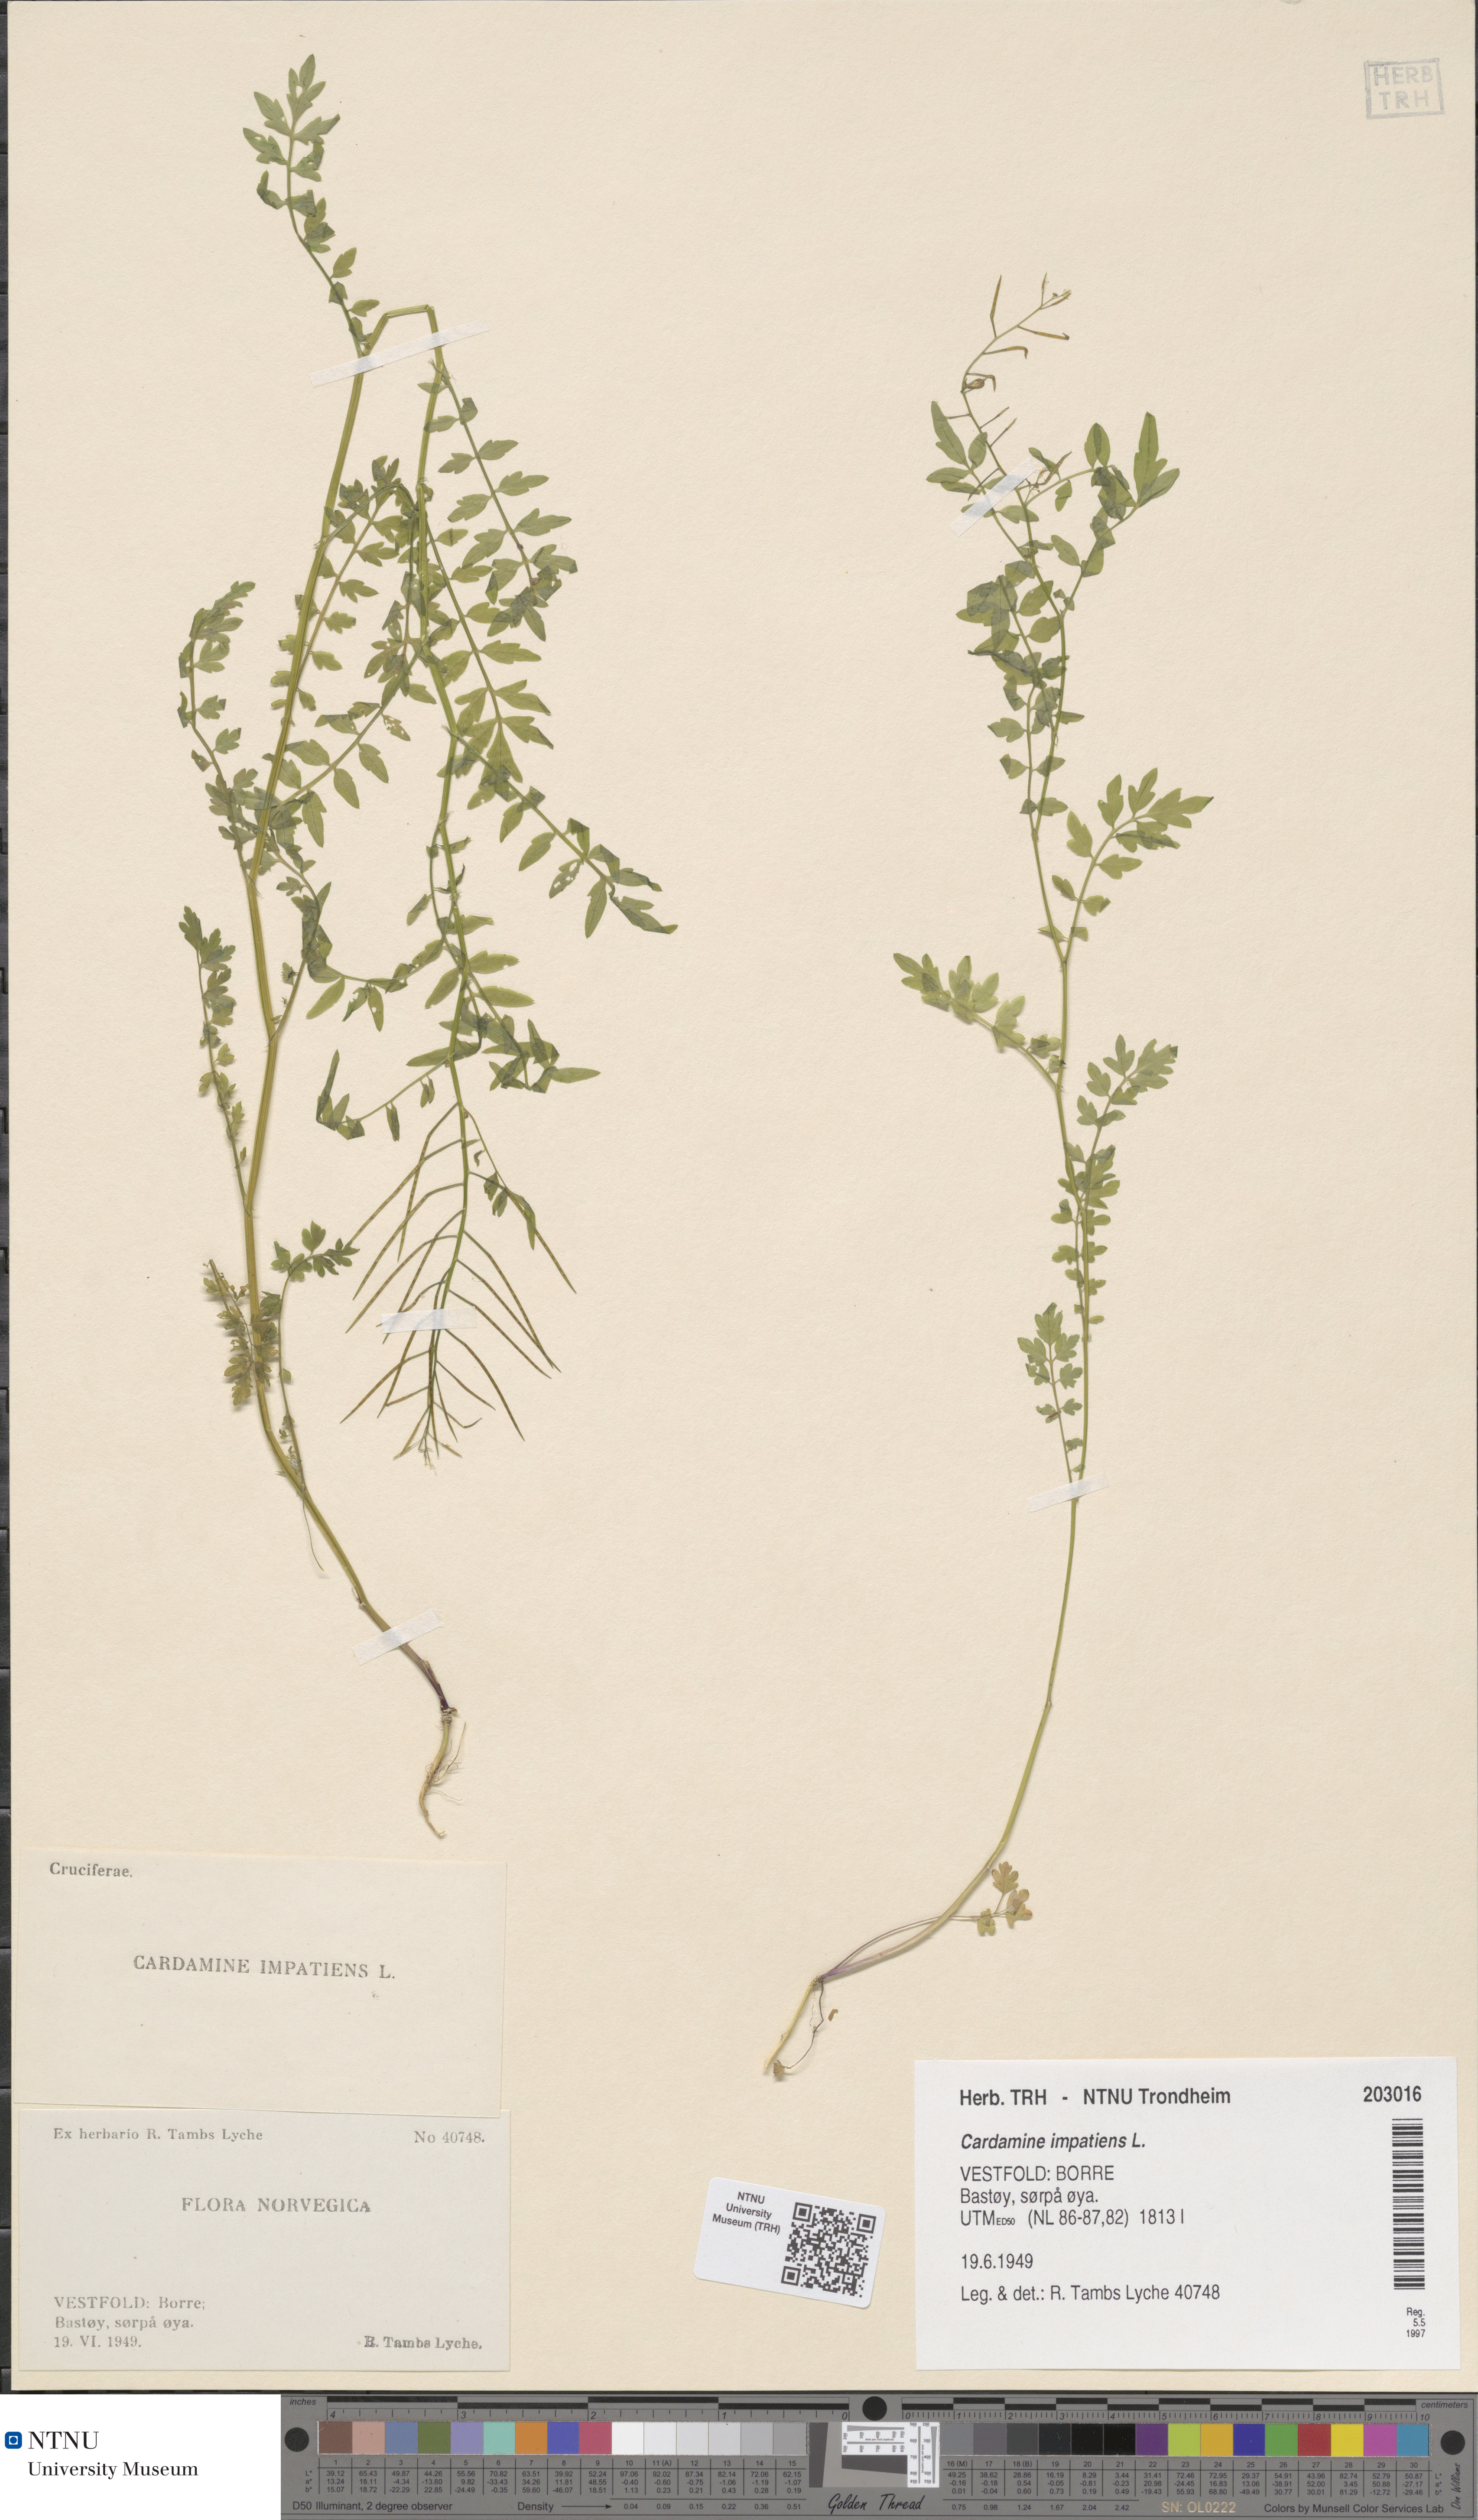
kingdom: Plantae
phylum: Tracheophyta
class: Magnoliopsida
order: Brassicales
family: Brassicaceae
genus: Cardamine
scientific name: Cardamine impatiens
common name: Narrow-leaved bitter-cress
